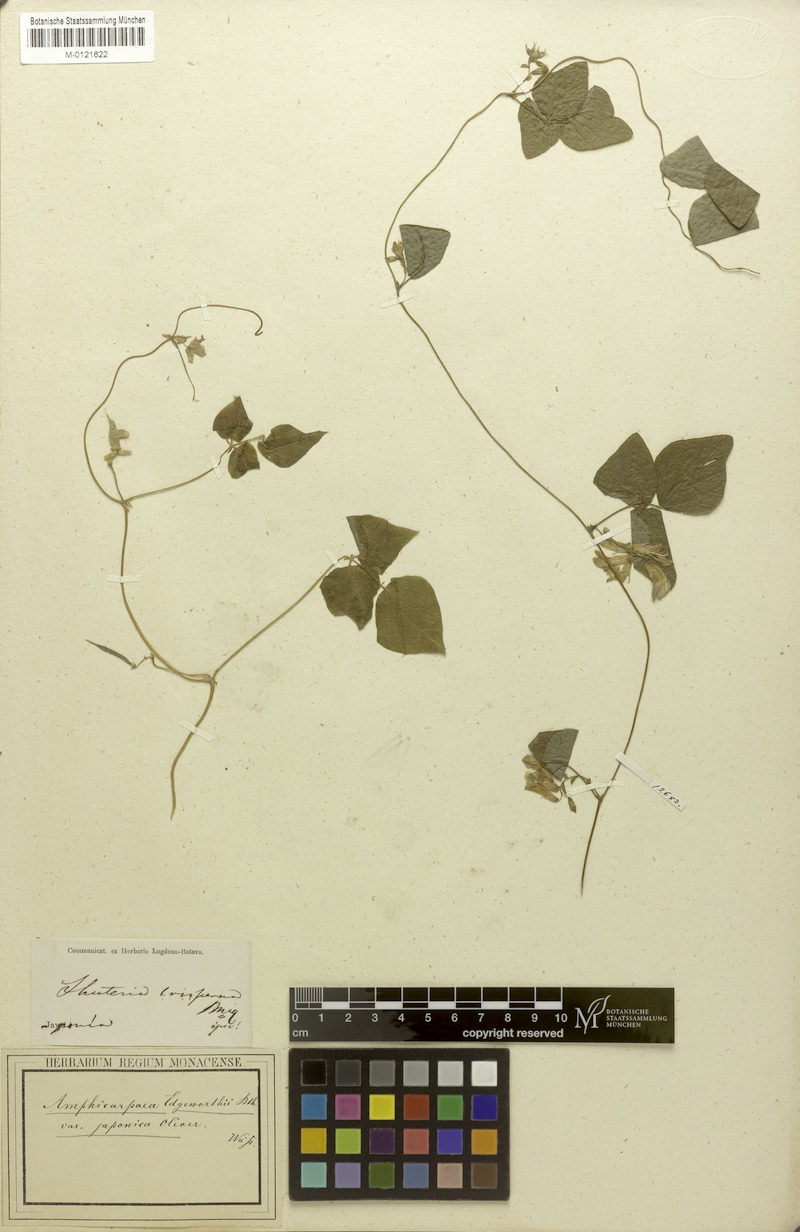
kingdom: Plantae
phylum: Tracheophyta
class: Magnoliopsida
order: Fabales
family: Fabaceae
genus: Amphicarpaea
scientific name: Amphicarpaea edgeworthii
